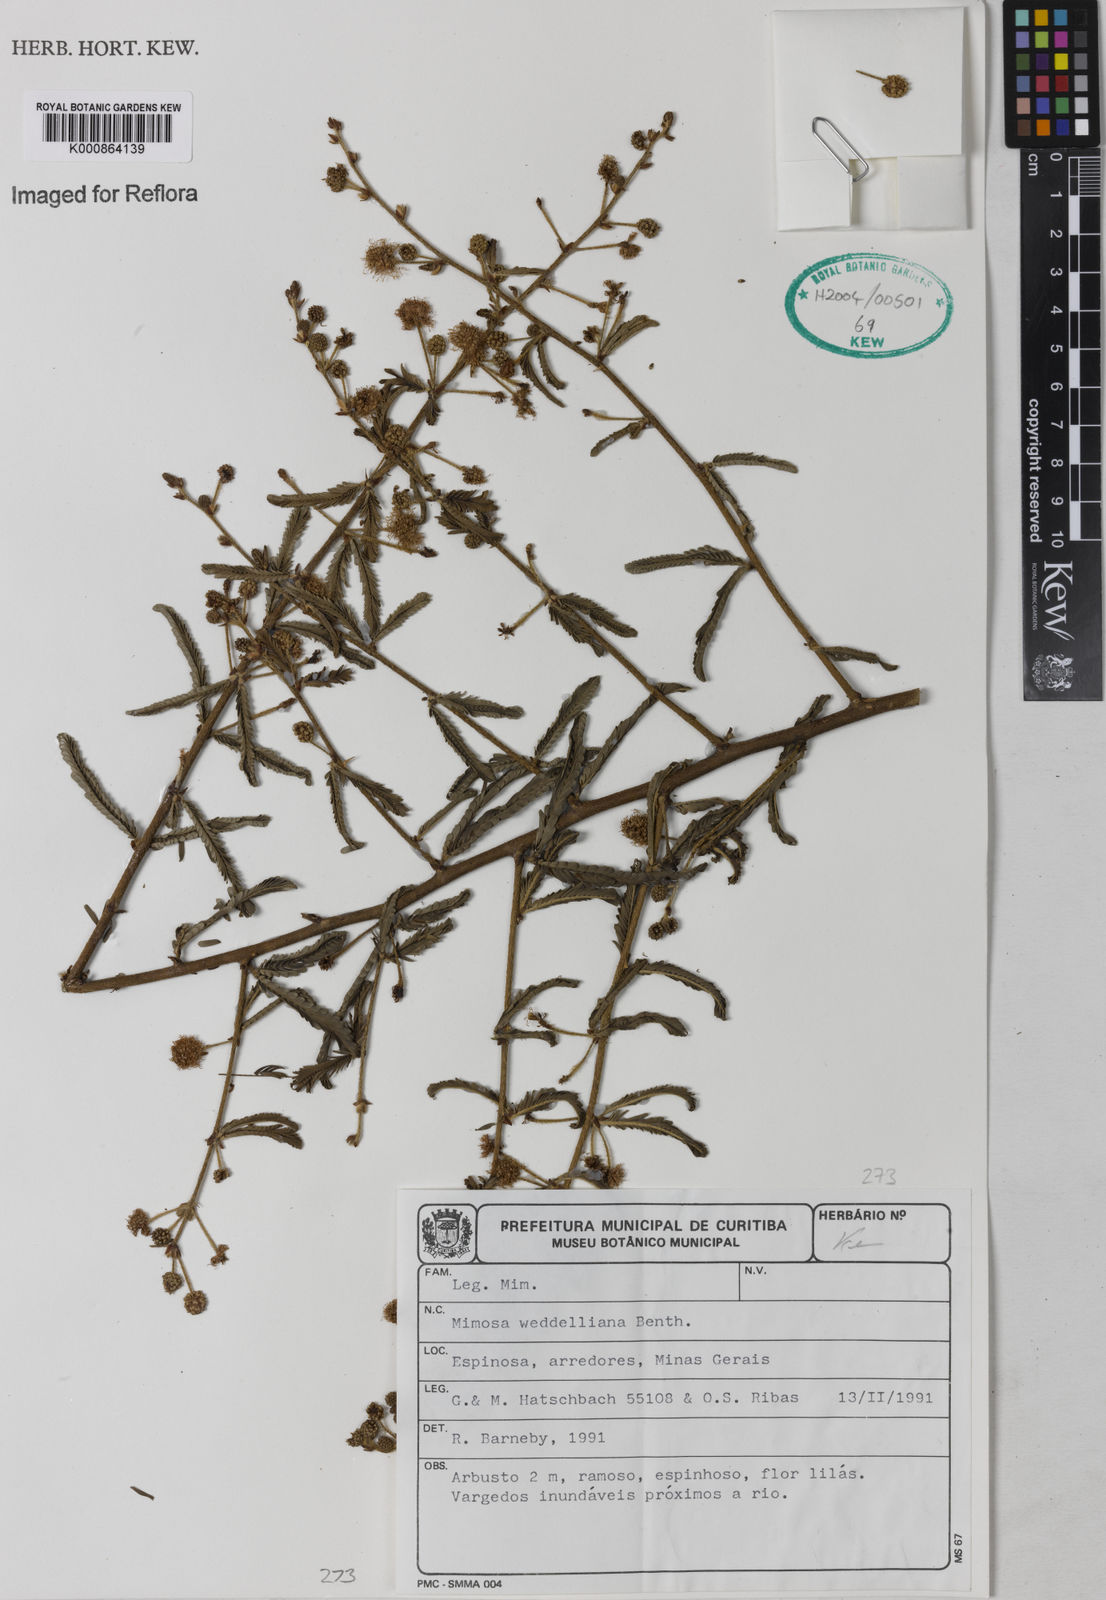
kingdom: Plantae
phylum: Tracheophyta
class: Magnoliopsida
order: Fabales
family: Fabaceae
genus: Mimosa
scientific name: Mimosa weddelliana
